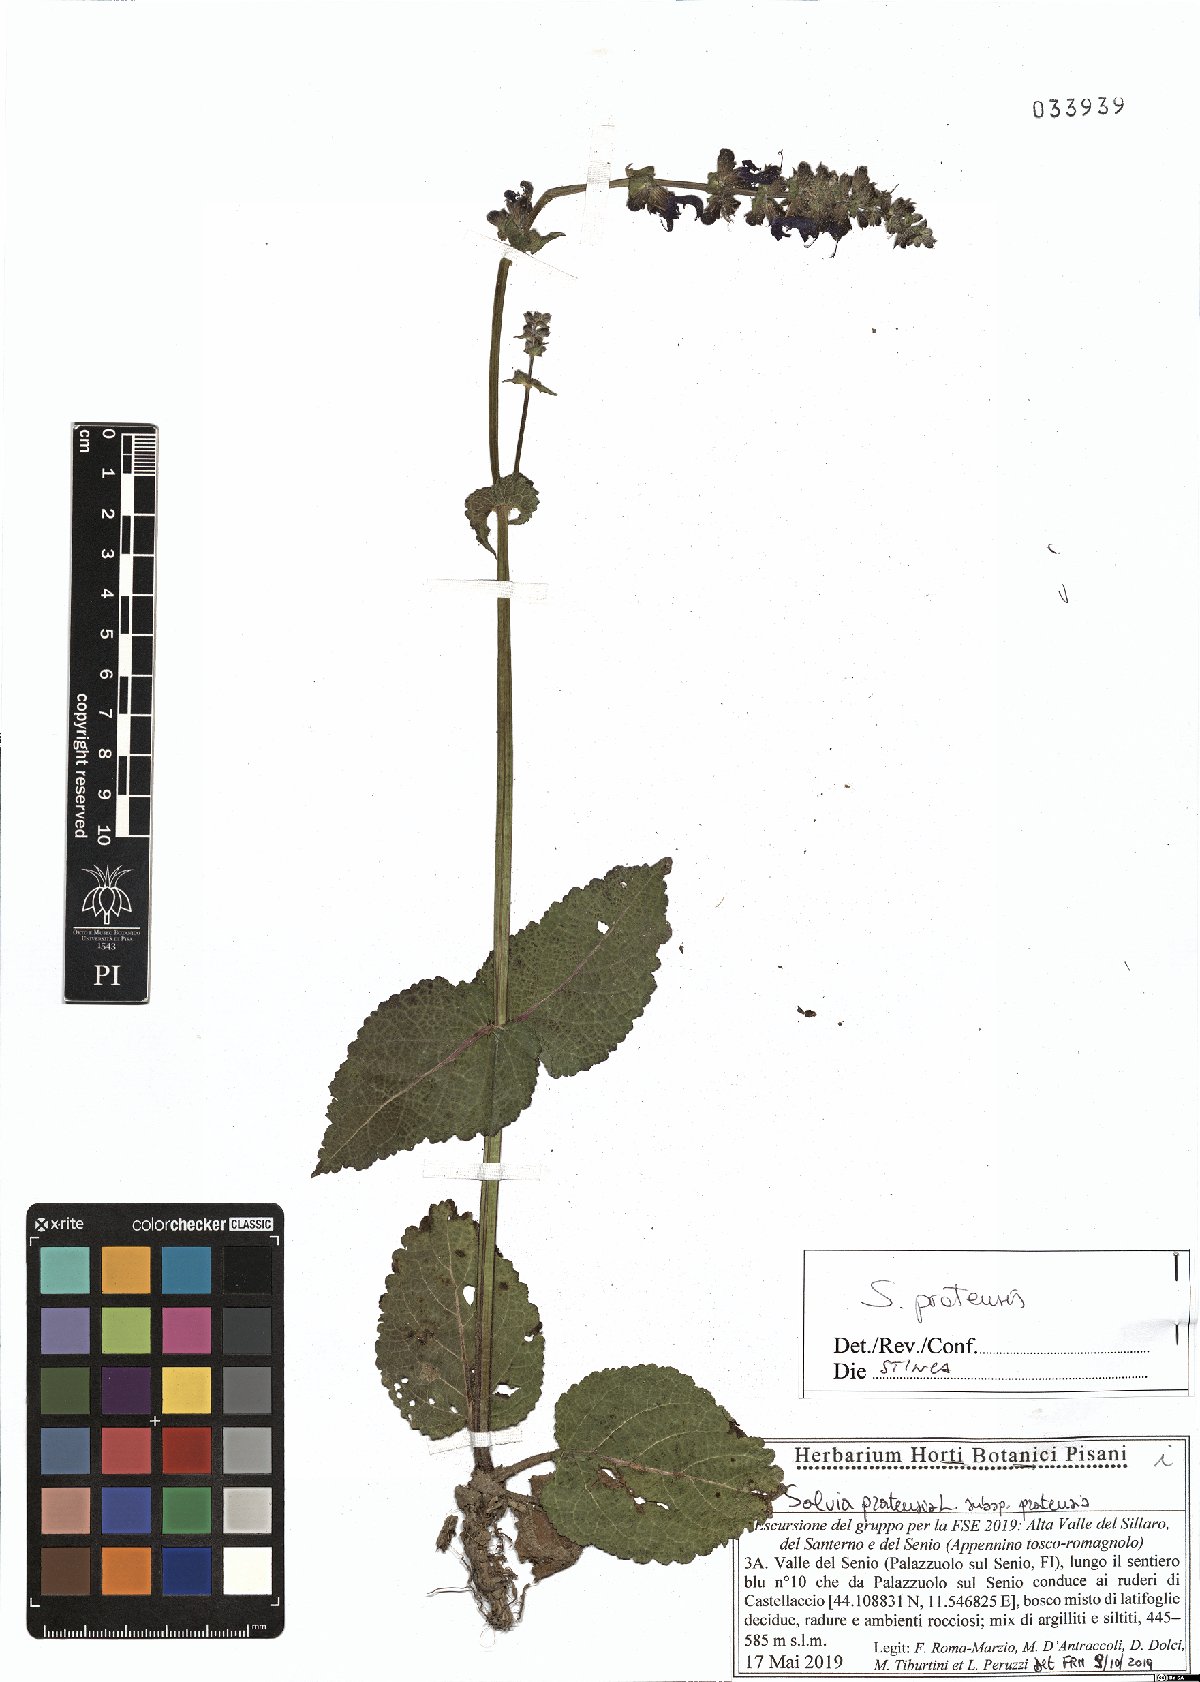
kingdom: Plantae
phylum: Tracheophyta
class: Magnoliopsida
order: Lamiales
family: Lamiaceae
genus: Salvia
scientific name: Salvia pratensis
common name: Meadow sage
